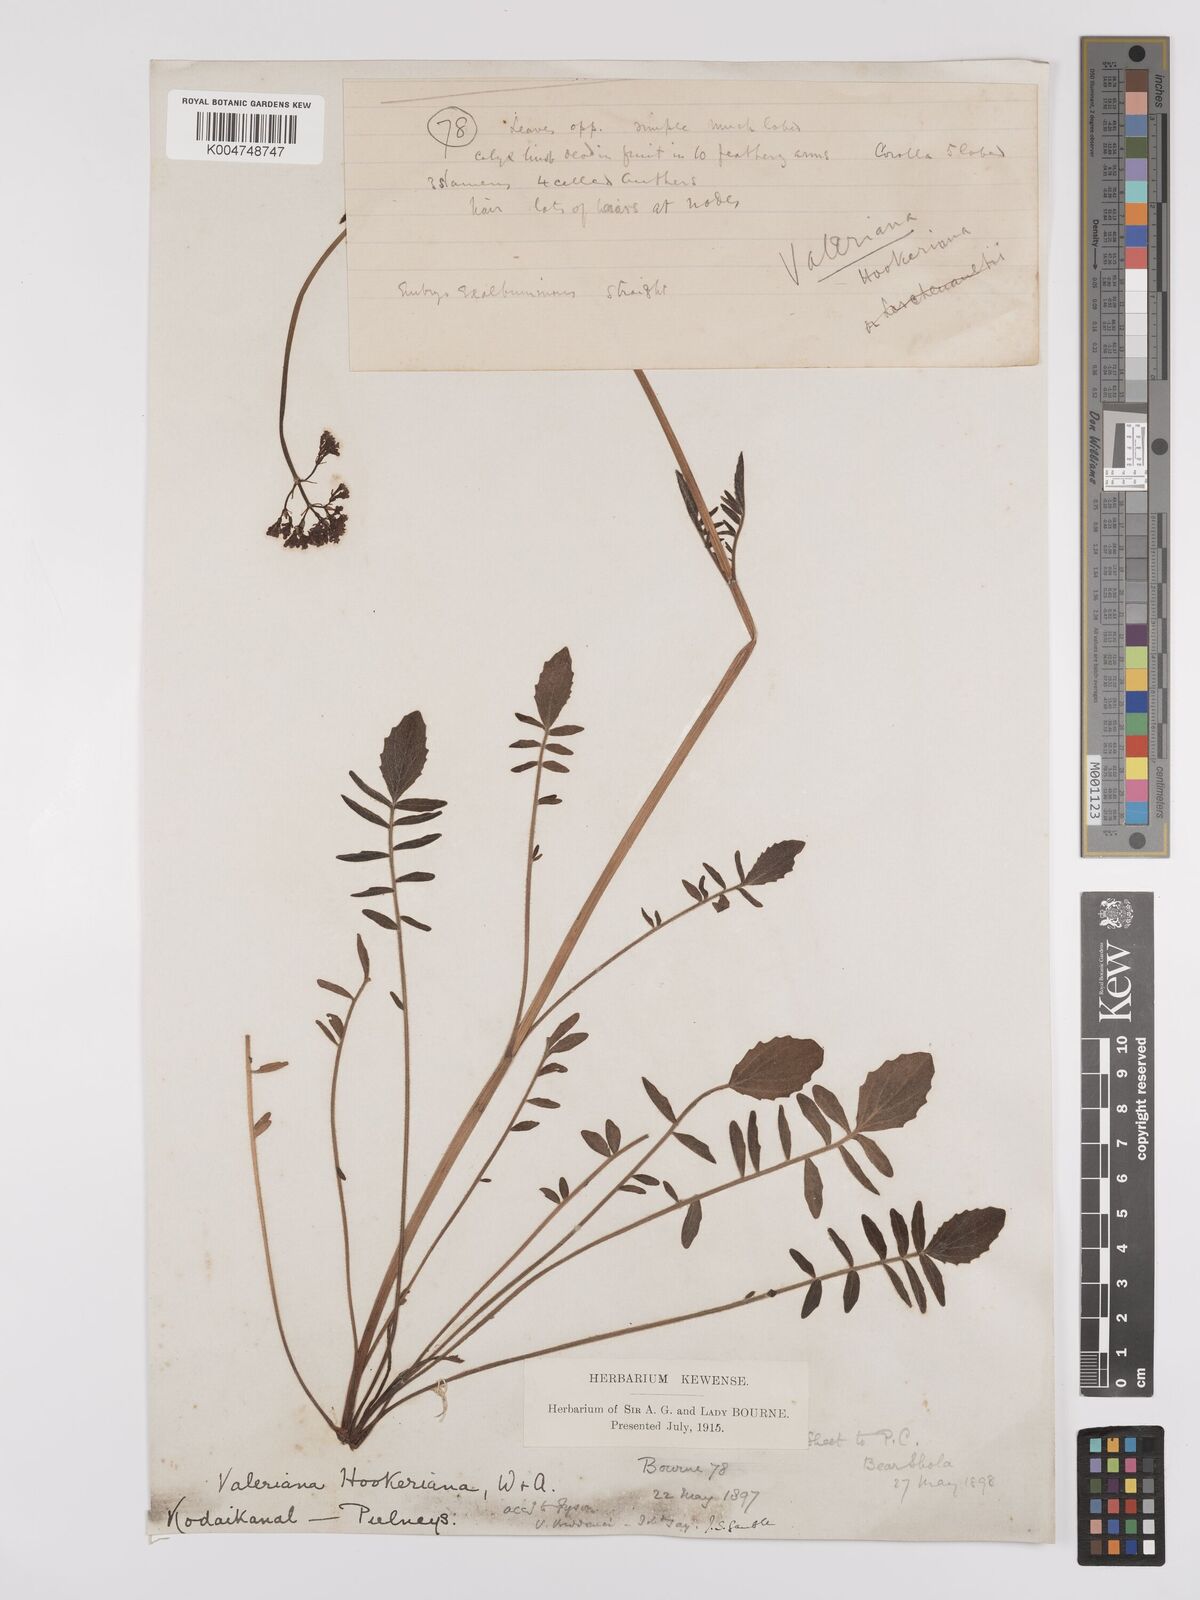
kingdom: Plantae
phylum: Tracheophyta
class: Magnoliopsida
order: Dipsacales
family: Caprifoliaceae
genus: Valeriana
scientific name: Valeriana beddomei
